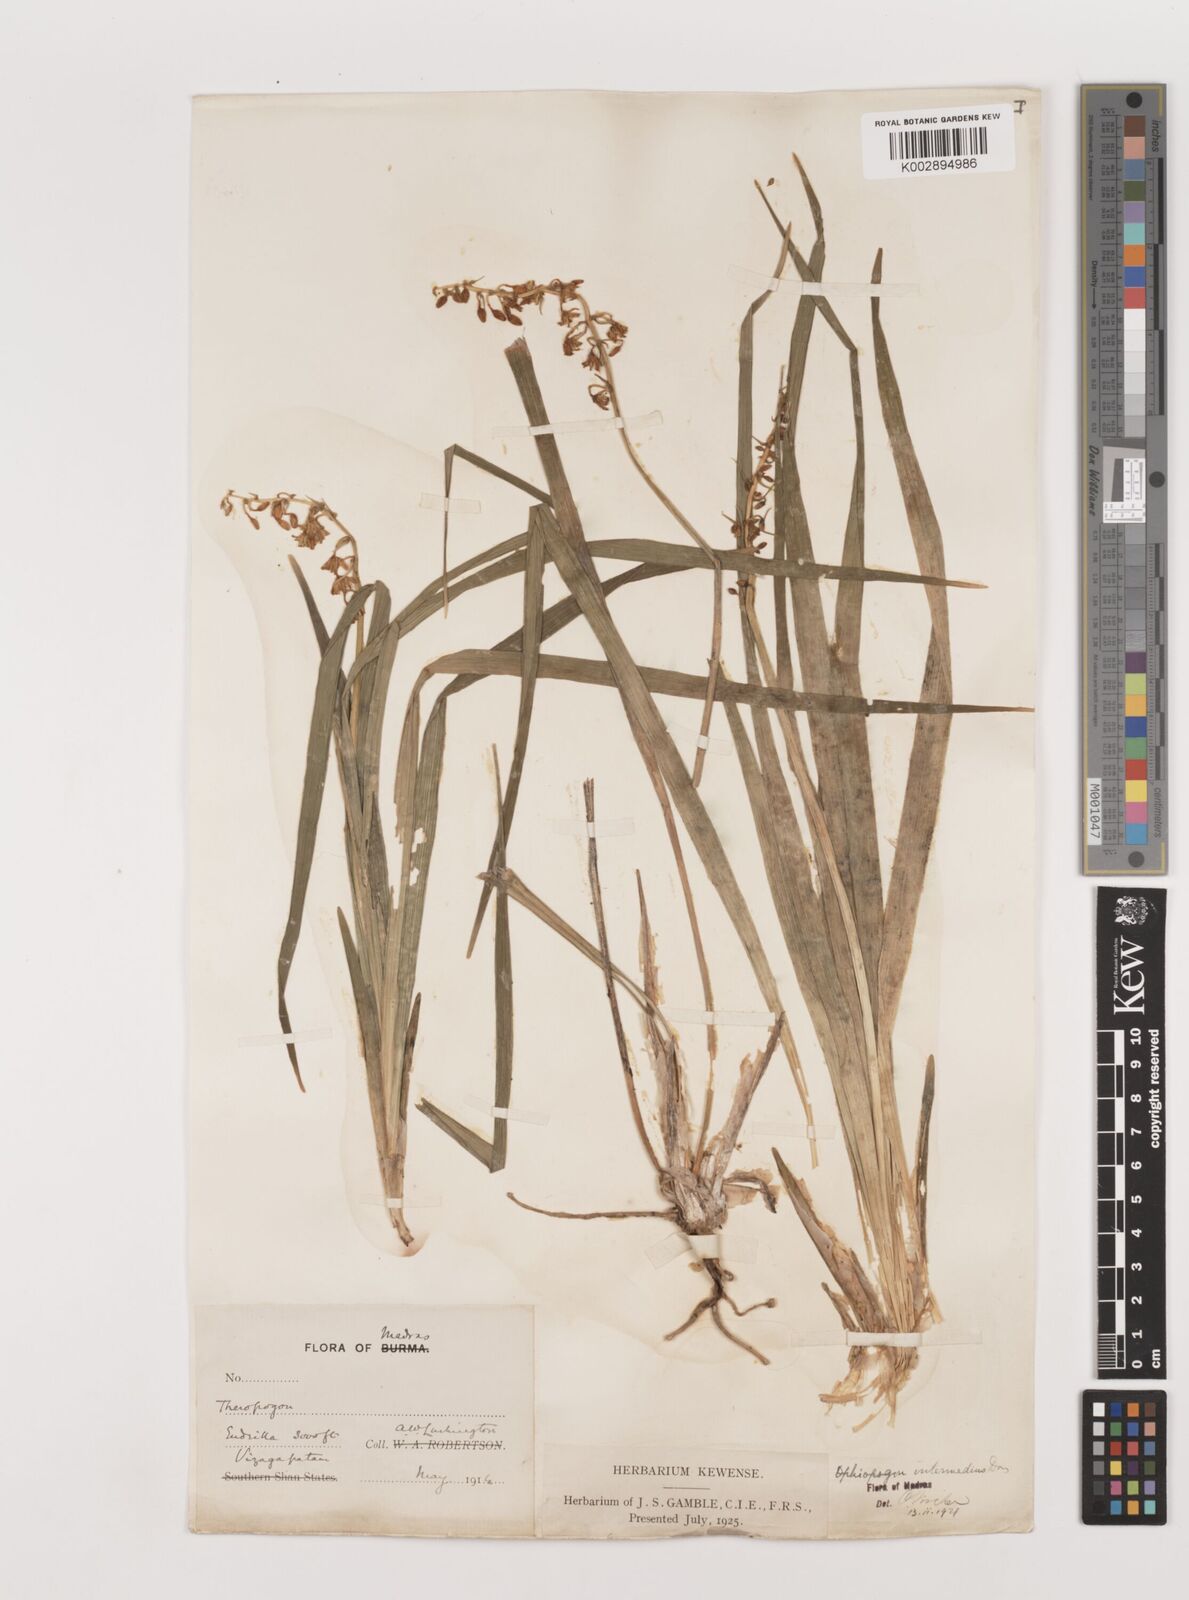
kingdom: Plantae
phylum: Tracheophyta
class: Liliopsida
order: Asparagales
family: Asparagaceae
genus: Ophiopogon
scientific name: Ophiopogon intermedius
